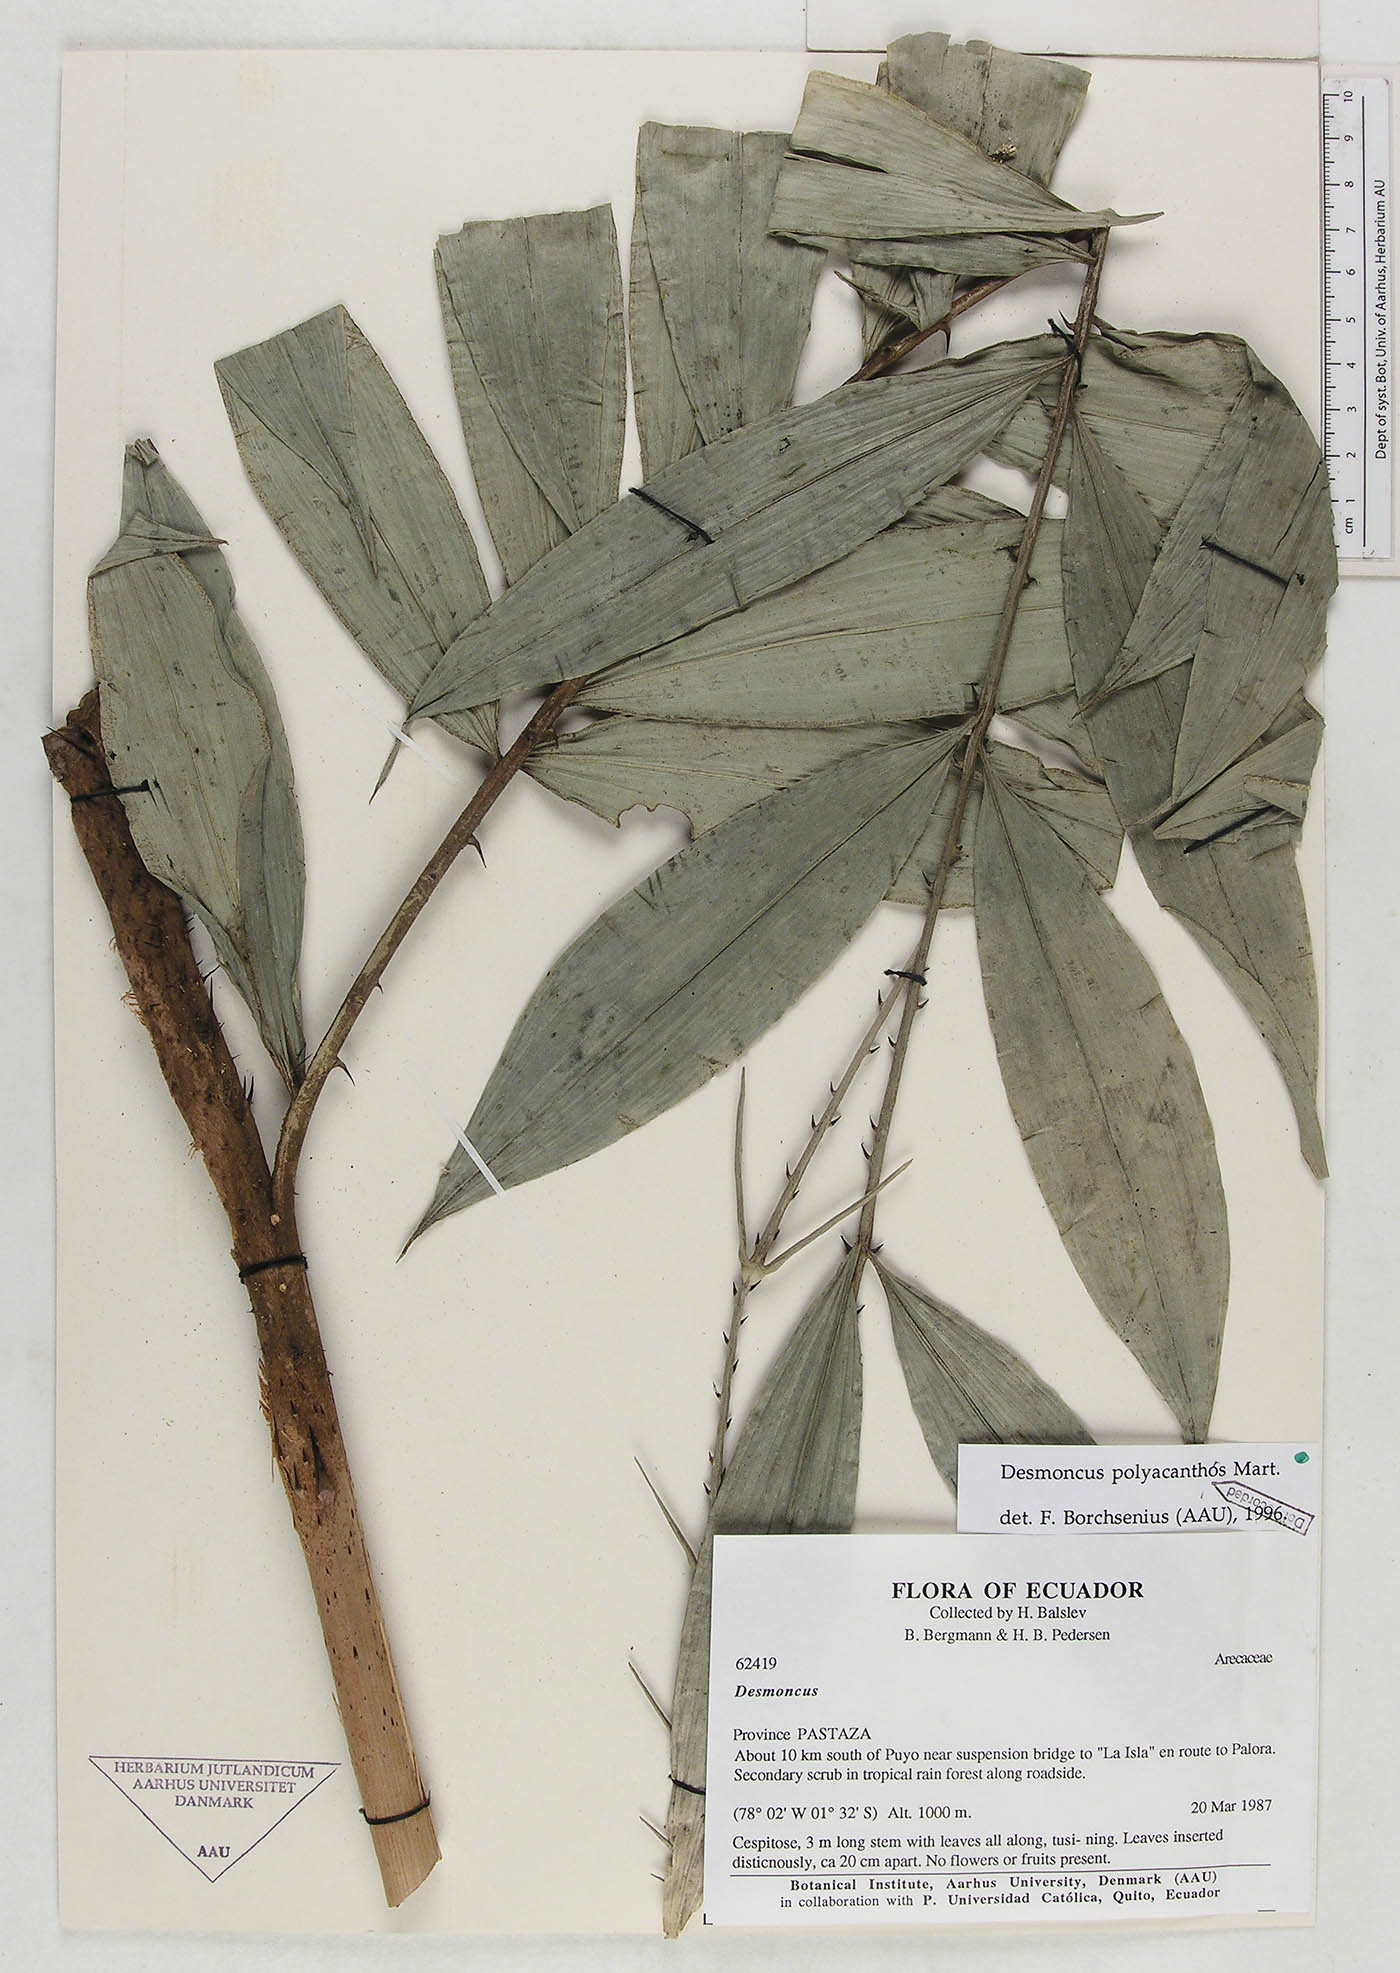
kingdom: Plantae
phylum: Tracheophyta
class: Liliopsida
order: Arecales
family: Arecaceae
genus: Desmoncus
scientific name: Desmoncus prunifer
